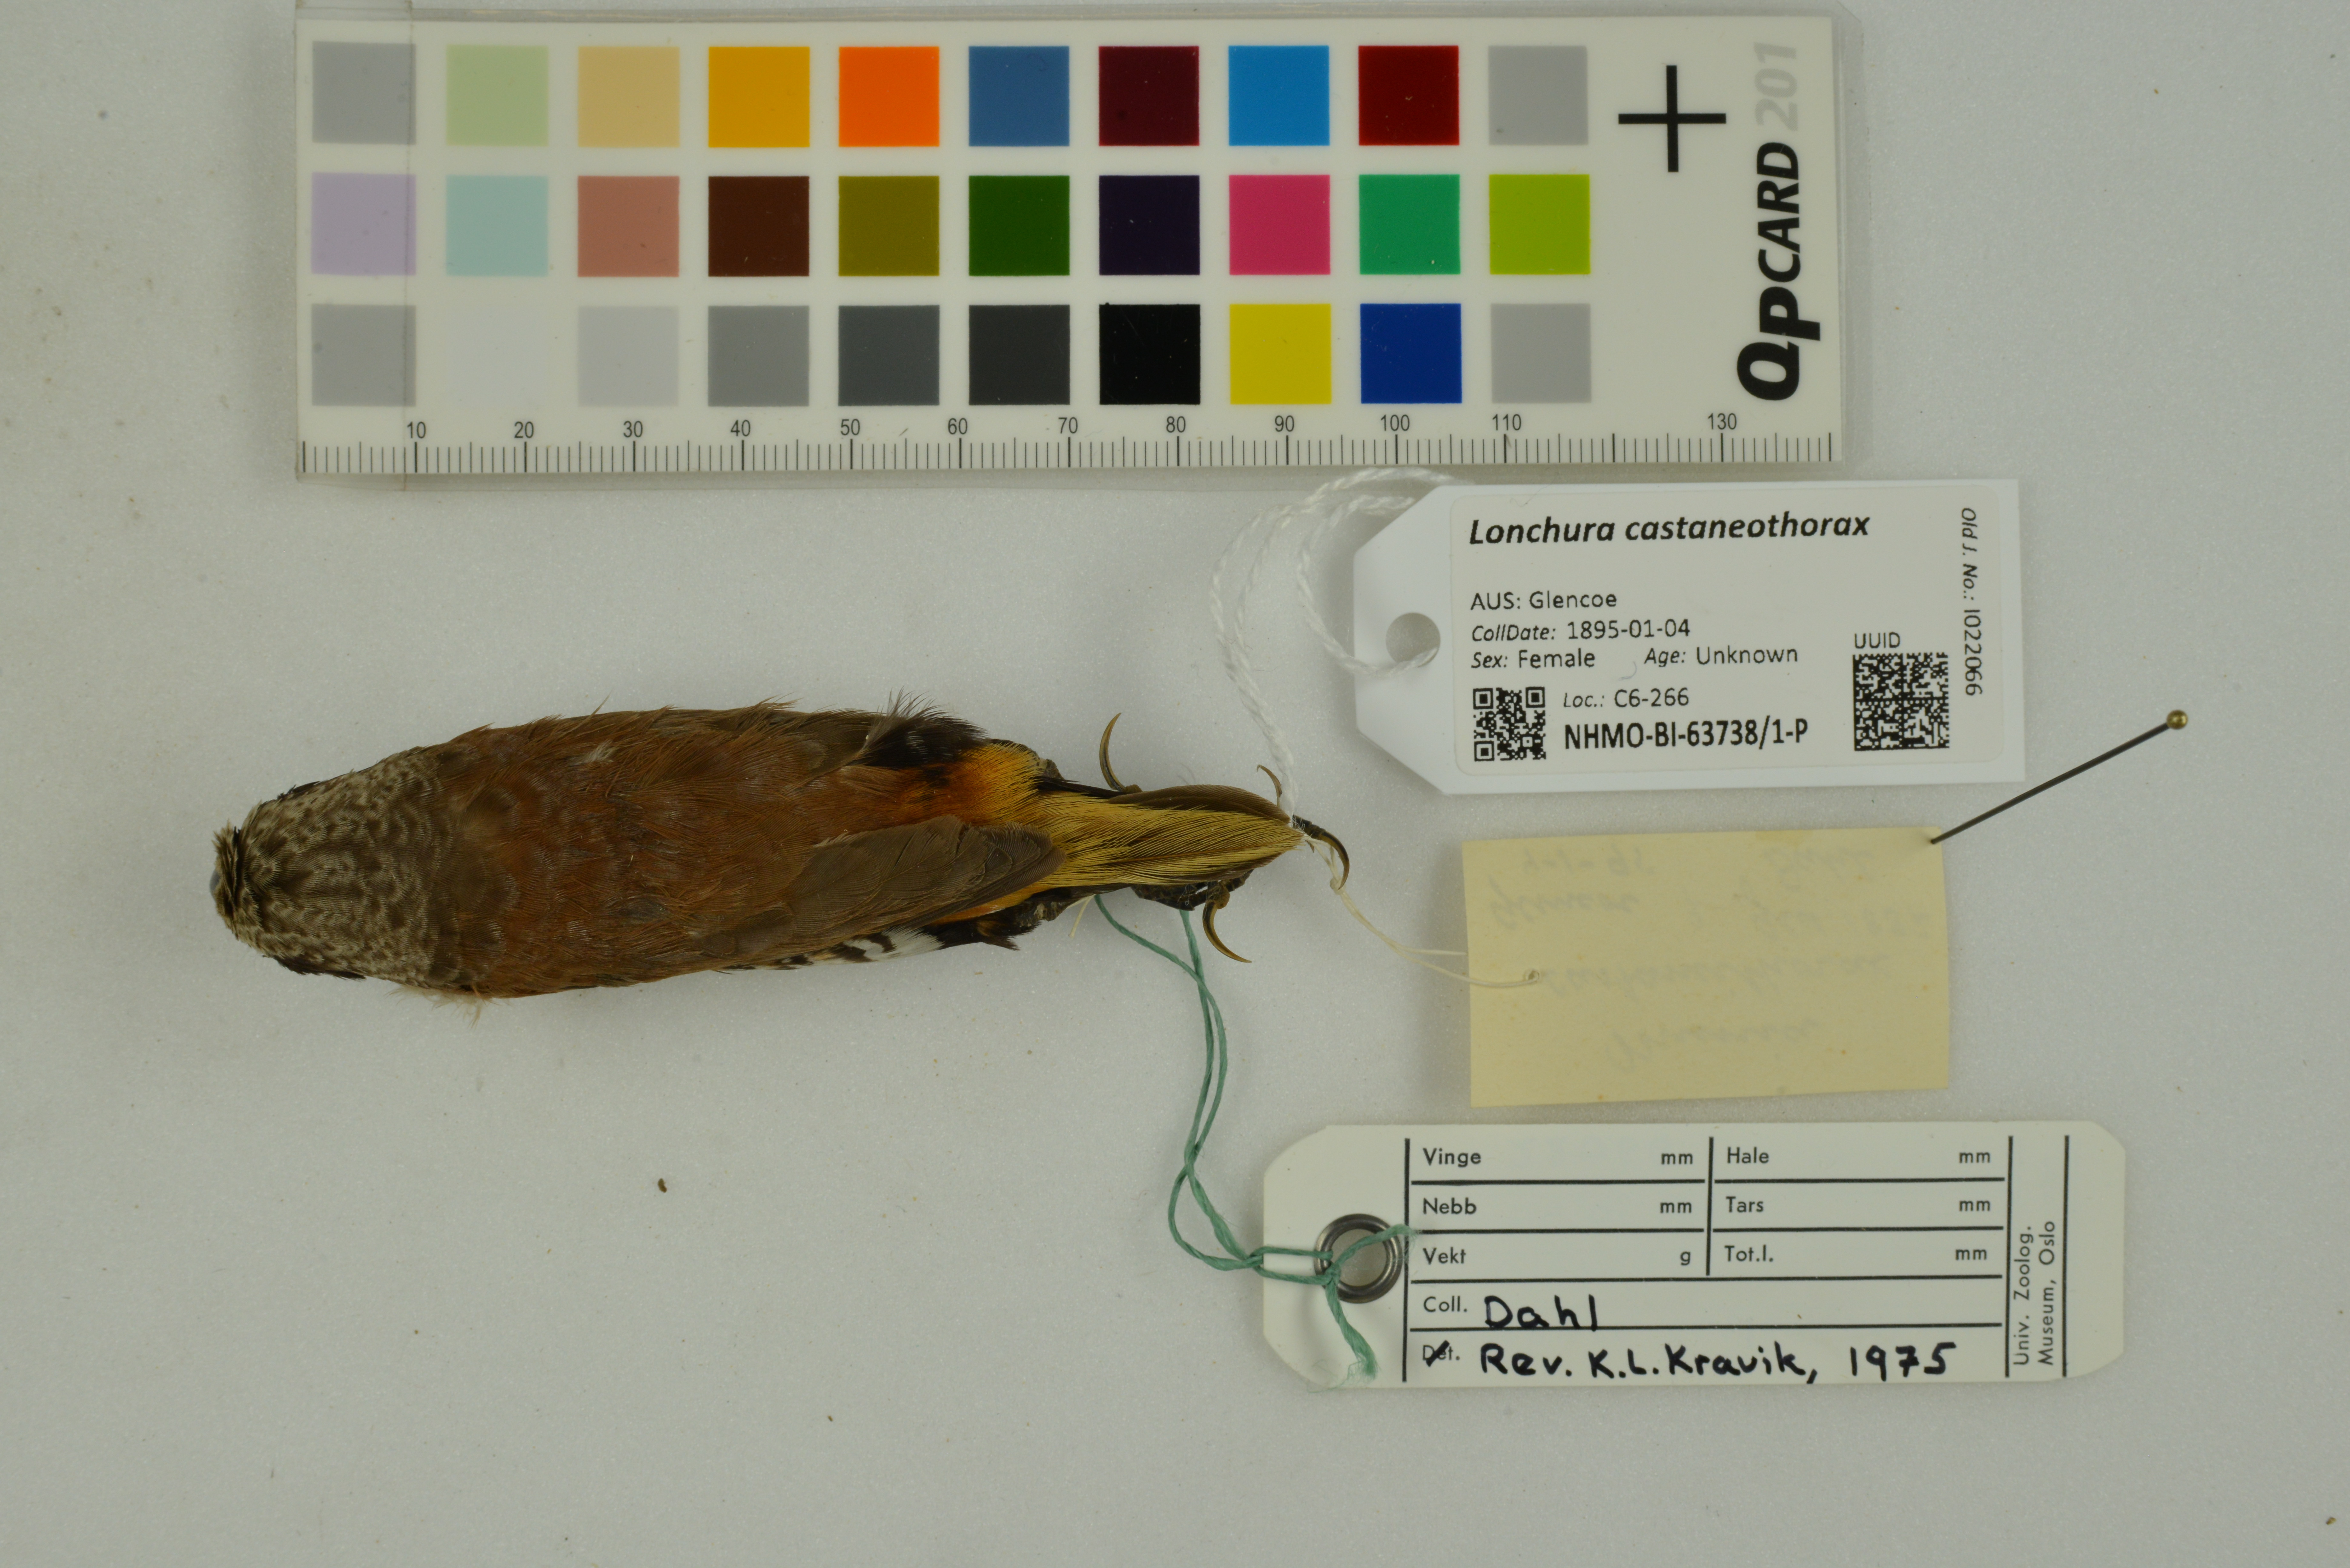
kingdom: Animalia
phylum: Chordata
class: Aves
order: Passeriformes
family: Estrildidae
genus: Lonchura
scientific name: Lonchura castaneothorax
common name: Chestnut-breasted mannikin
